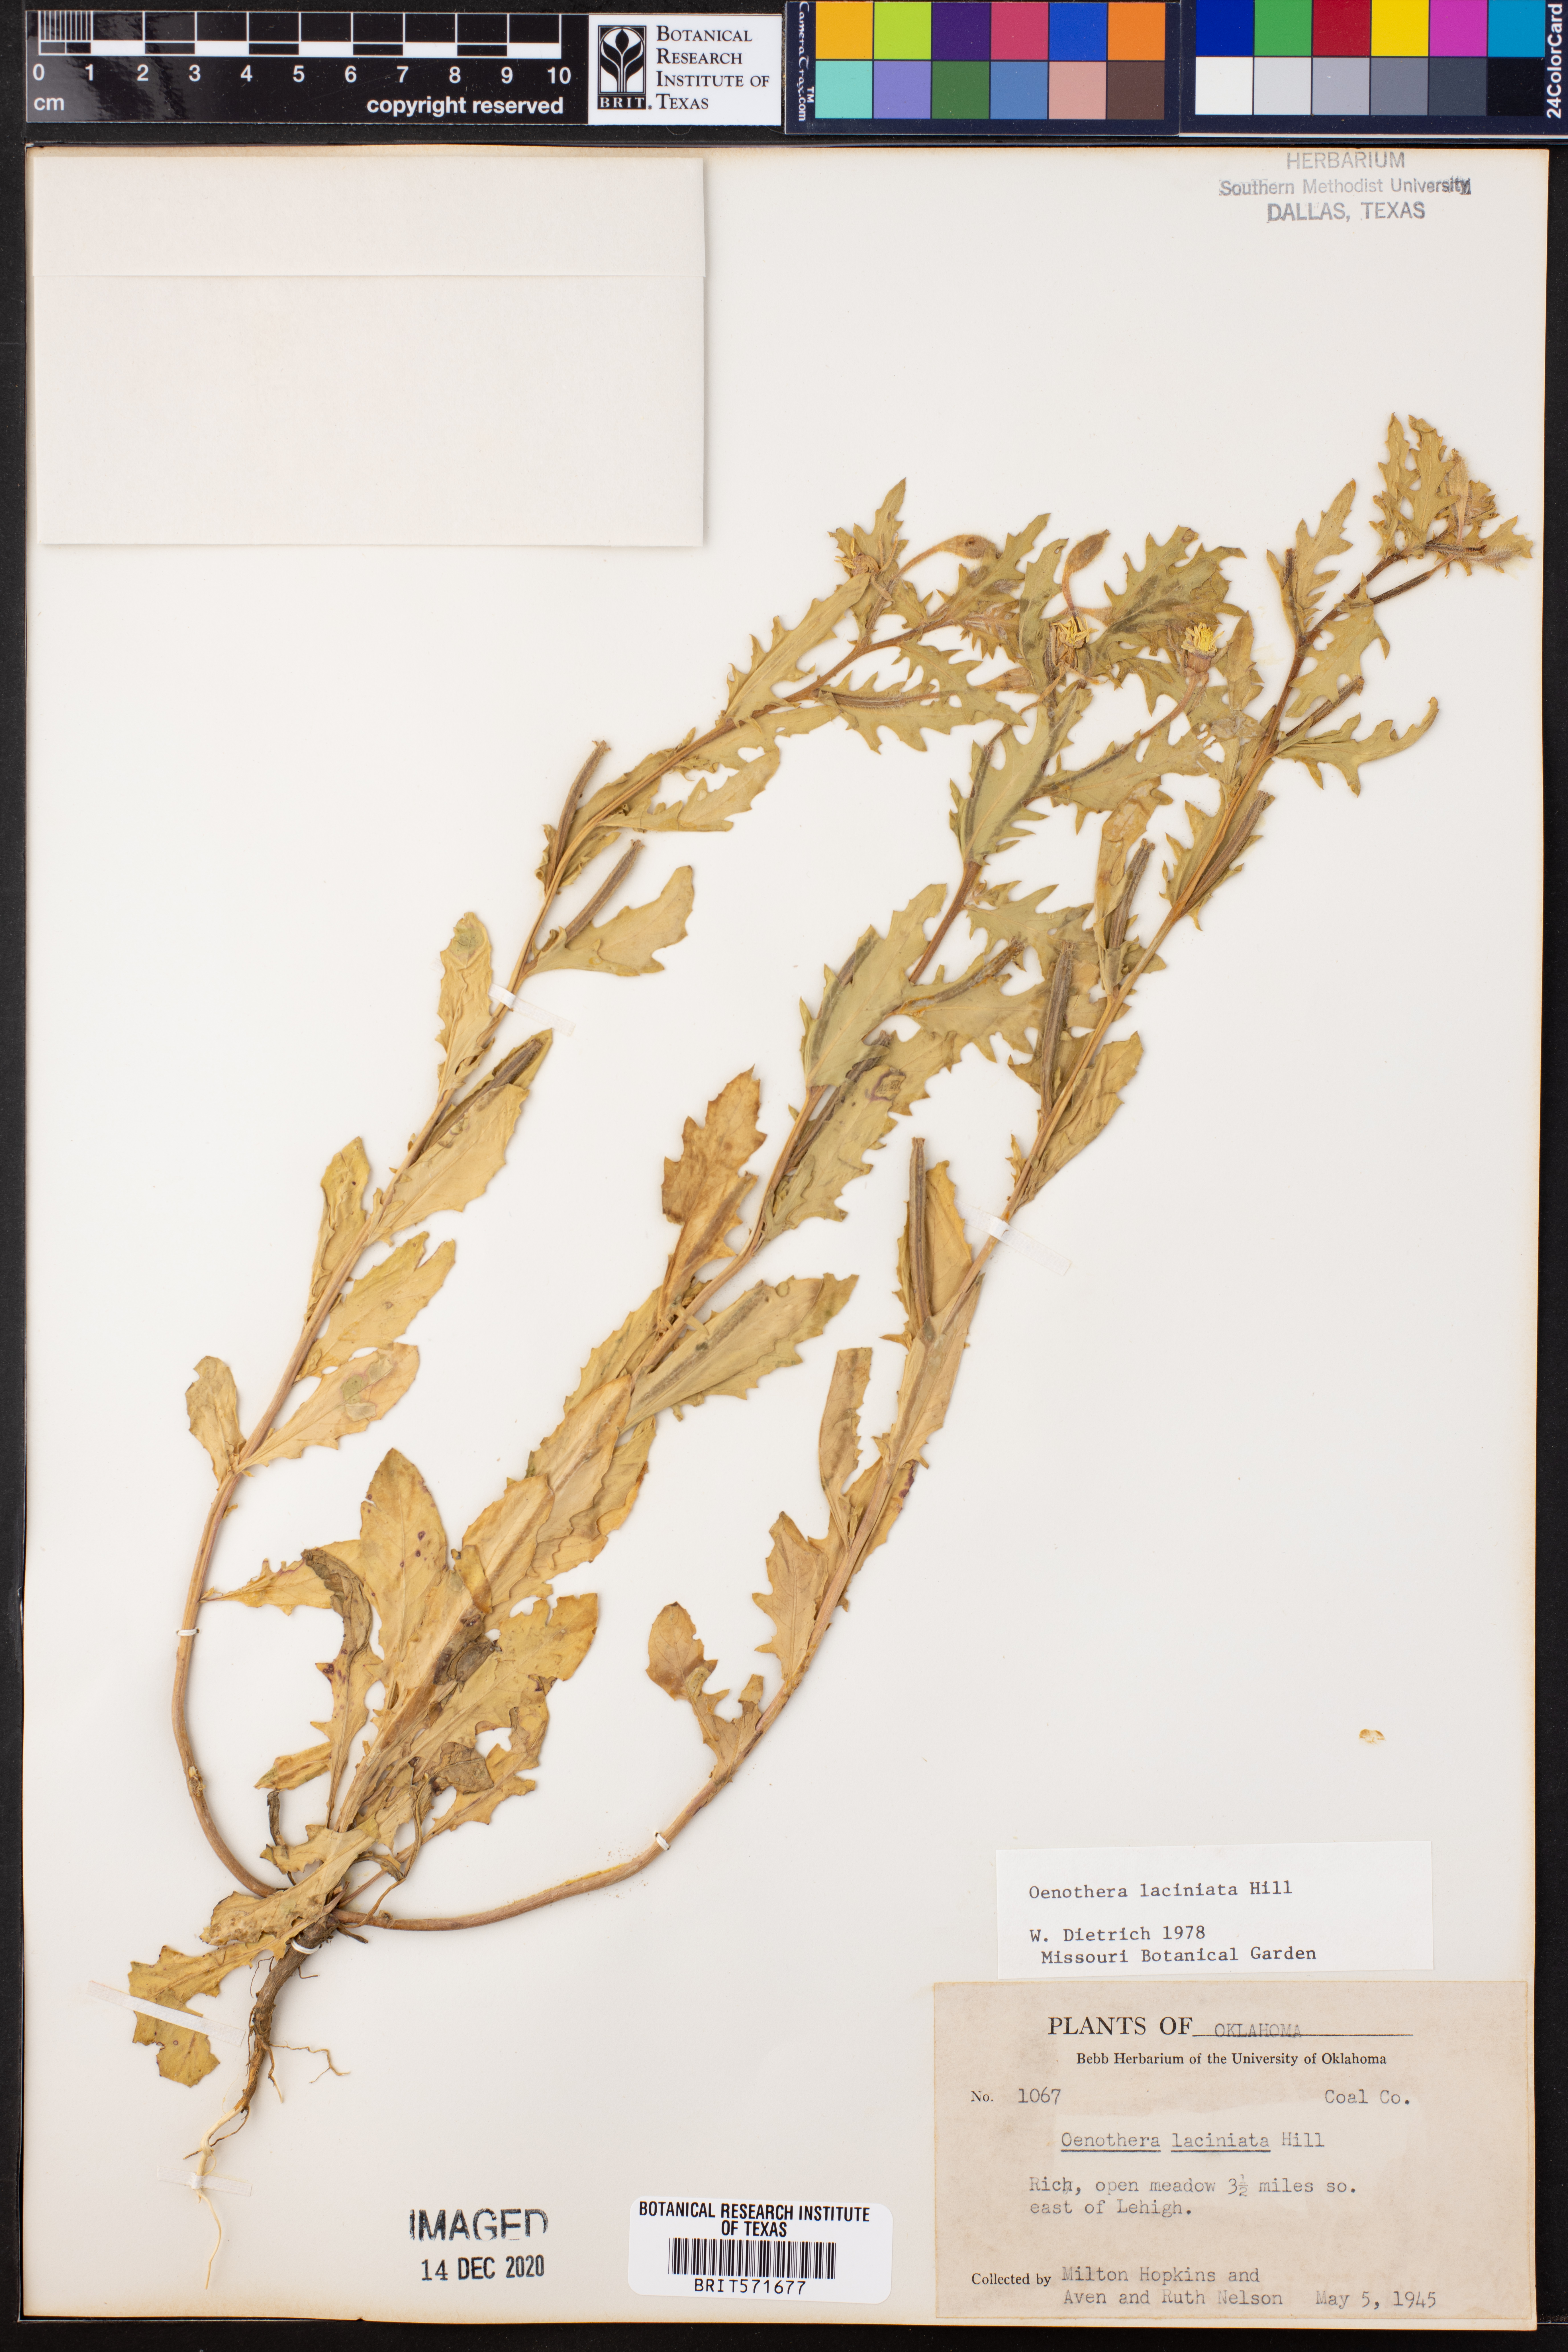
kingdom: Plantae
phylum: Tracheophyta
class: Magnoliopsida
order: Myrtales
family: Onagraceae
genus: Oenothera
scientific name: Oenothera laciniata
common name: Cut-leaved evening-primrose
